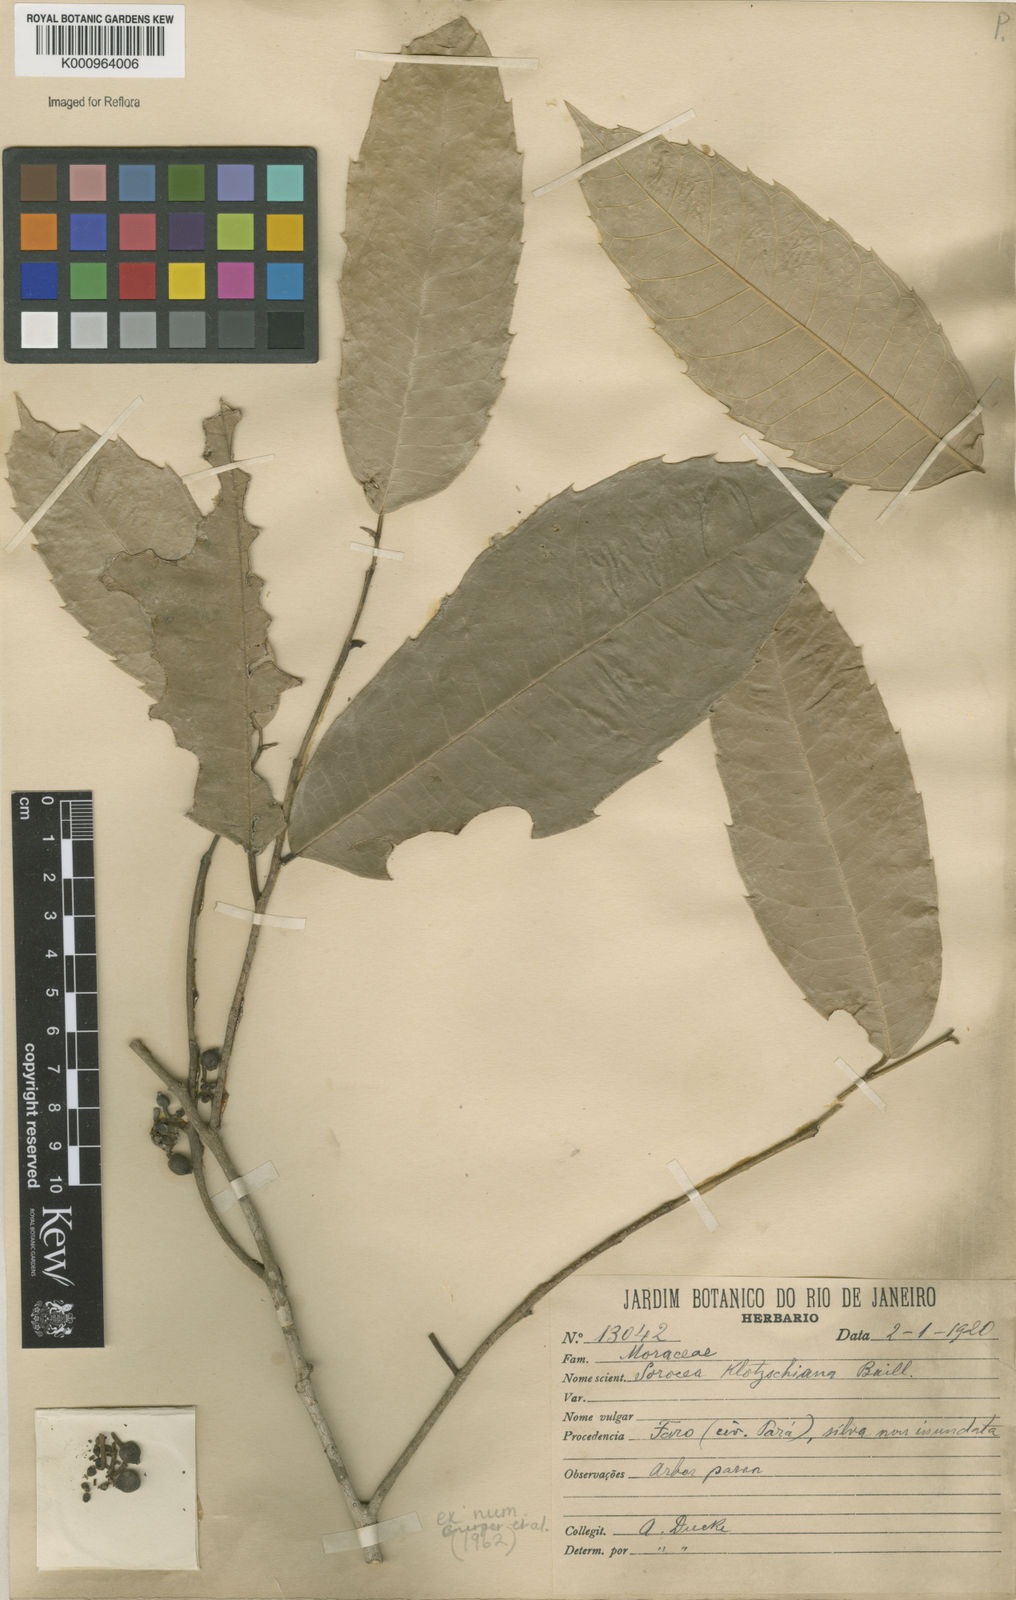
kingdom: Plantae
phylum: Tracheophyta
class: Magnoliopsida
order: Rosales
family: Moraceae
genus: Sorocea
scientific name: Sorocea guilleminiana
